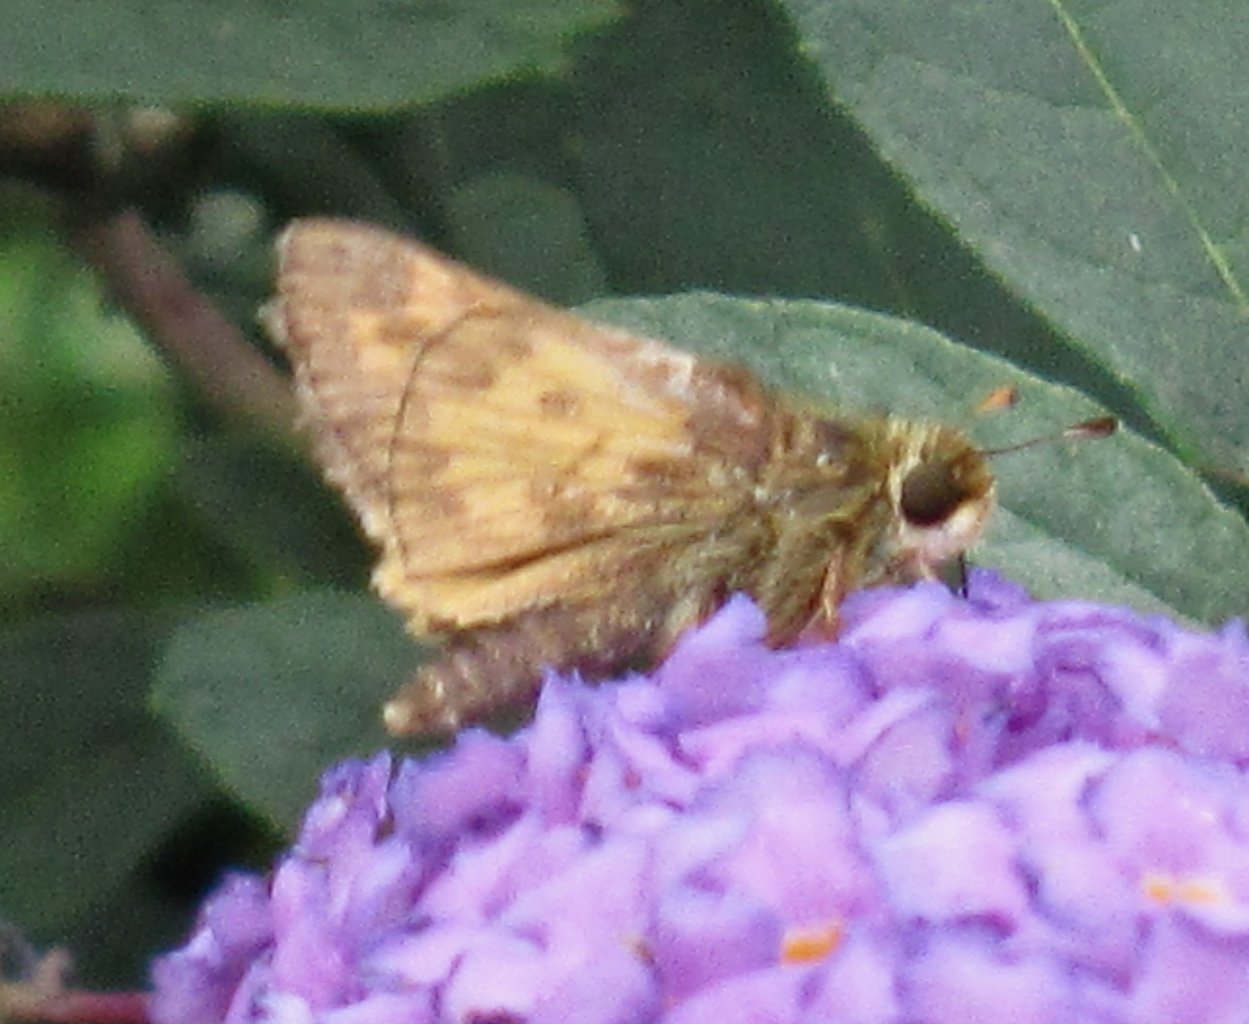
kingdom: Animalia
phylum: Arthropoda
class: Insecta
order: Lepidoptera
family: Hesperiidae
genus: Atalopedes
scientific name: Atalopedes campestris
